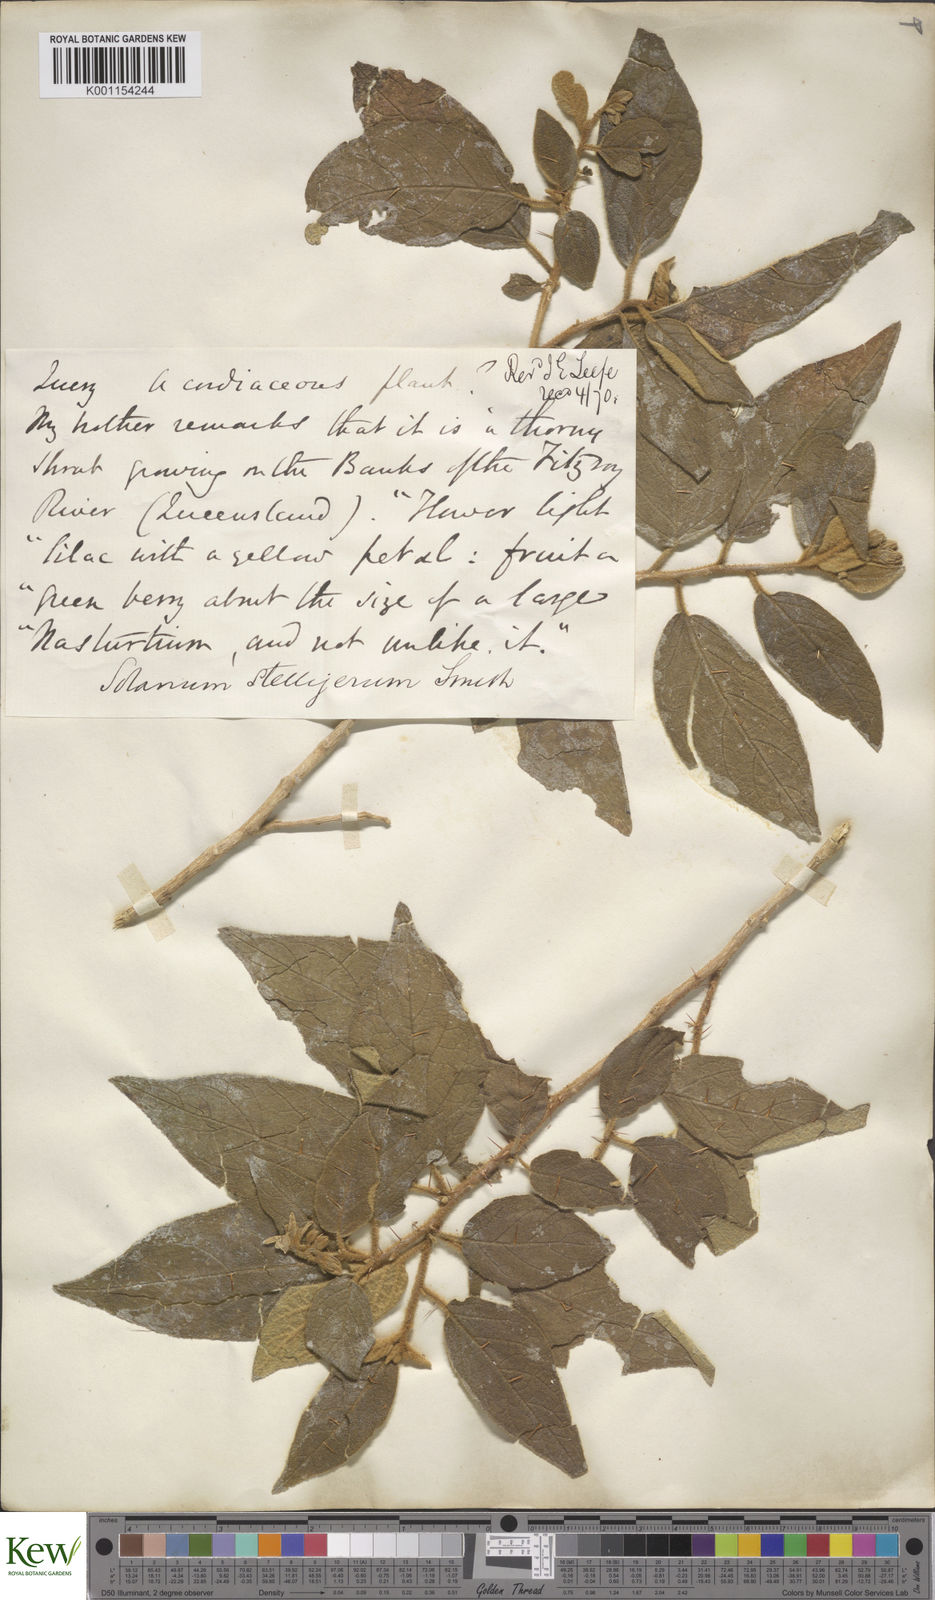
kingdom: Plantae
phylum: Tracheophyta
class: Magnoliopsida
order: Solanales
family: Solanaceae
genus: Solanum
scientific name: Solanum stelligerum
